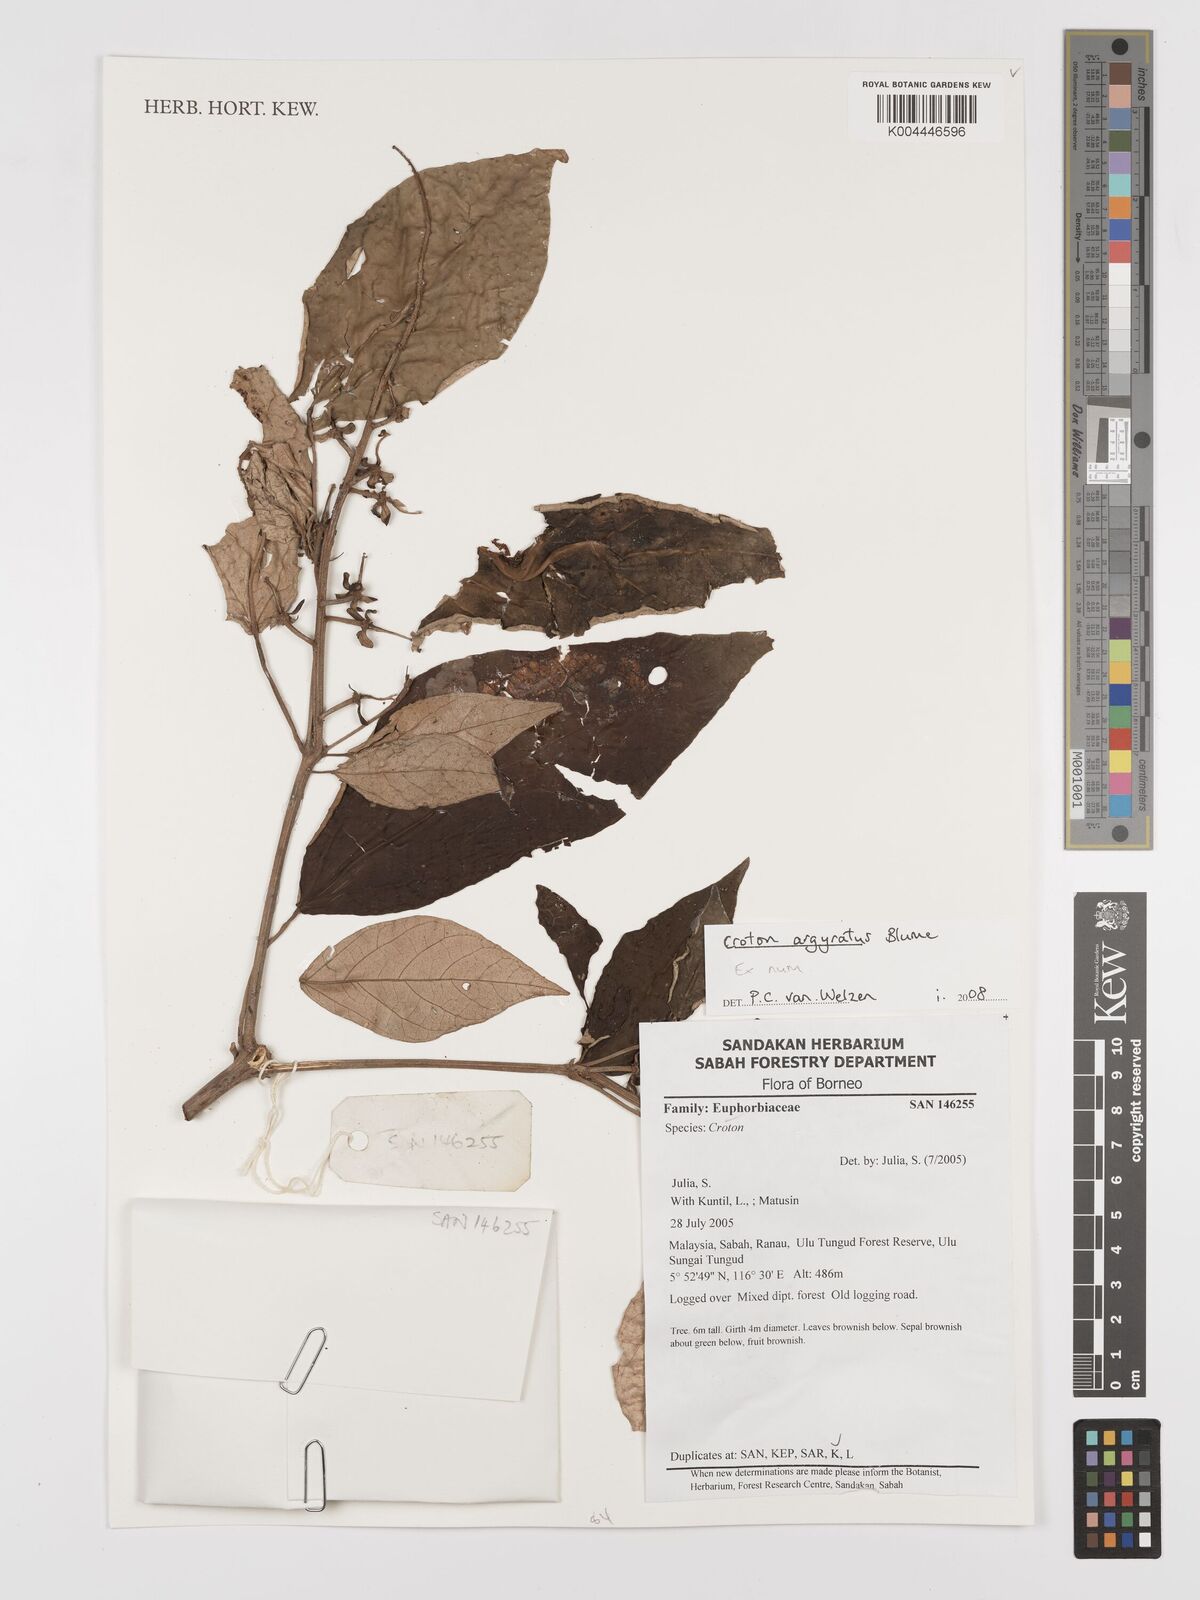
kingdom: Plantae
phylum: Tracheophyta
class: Magnoliopsida
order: Malpighiales
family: Euphorbiaceae
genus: Croton
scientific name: Croton argyratus
